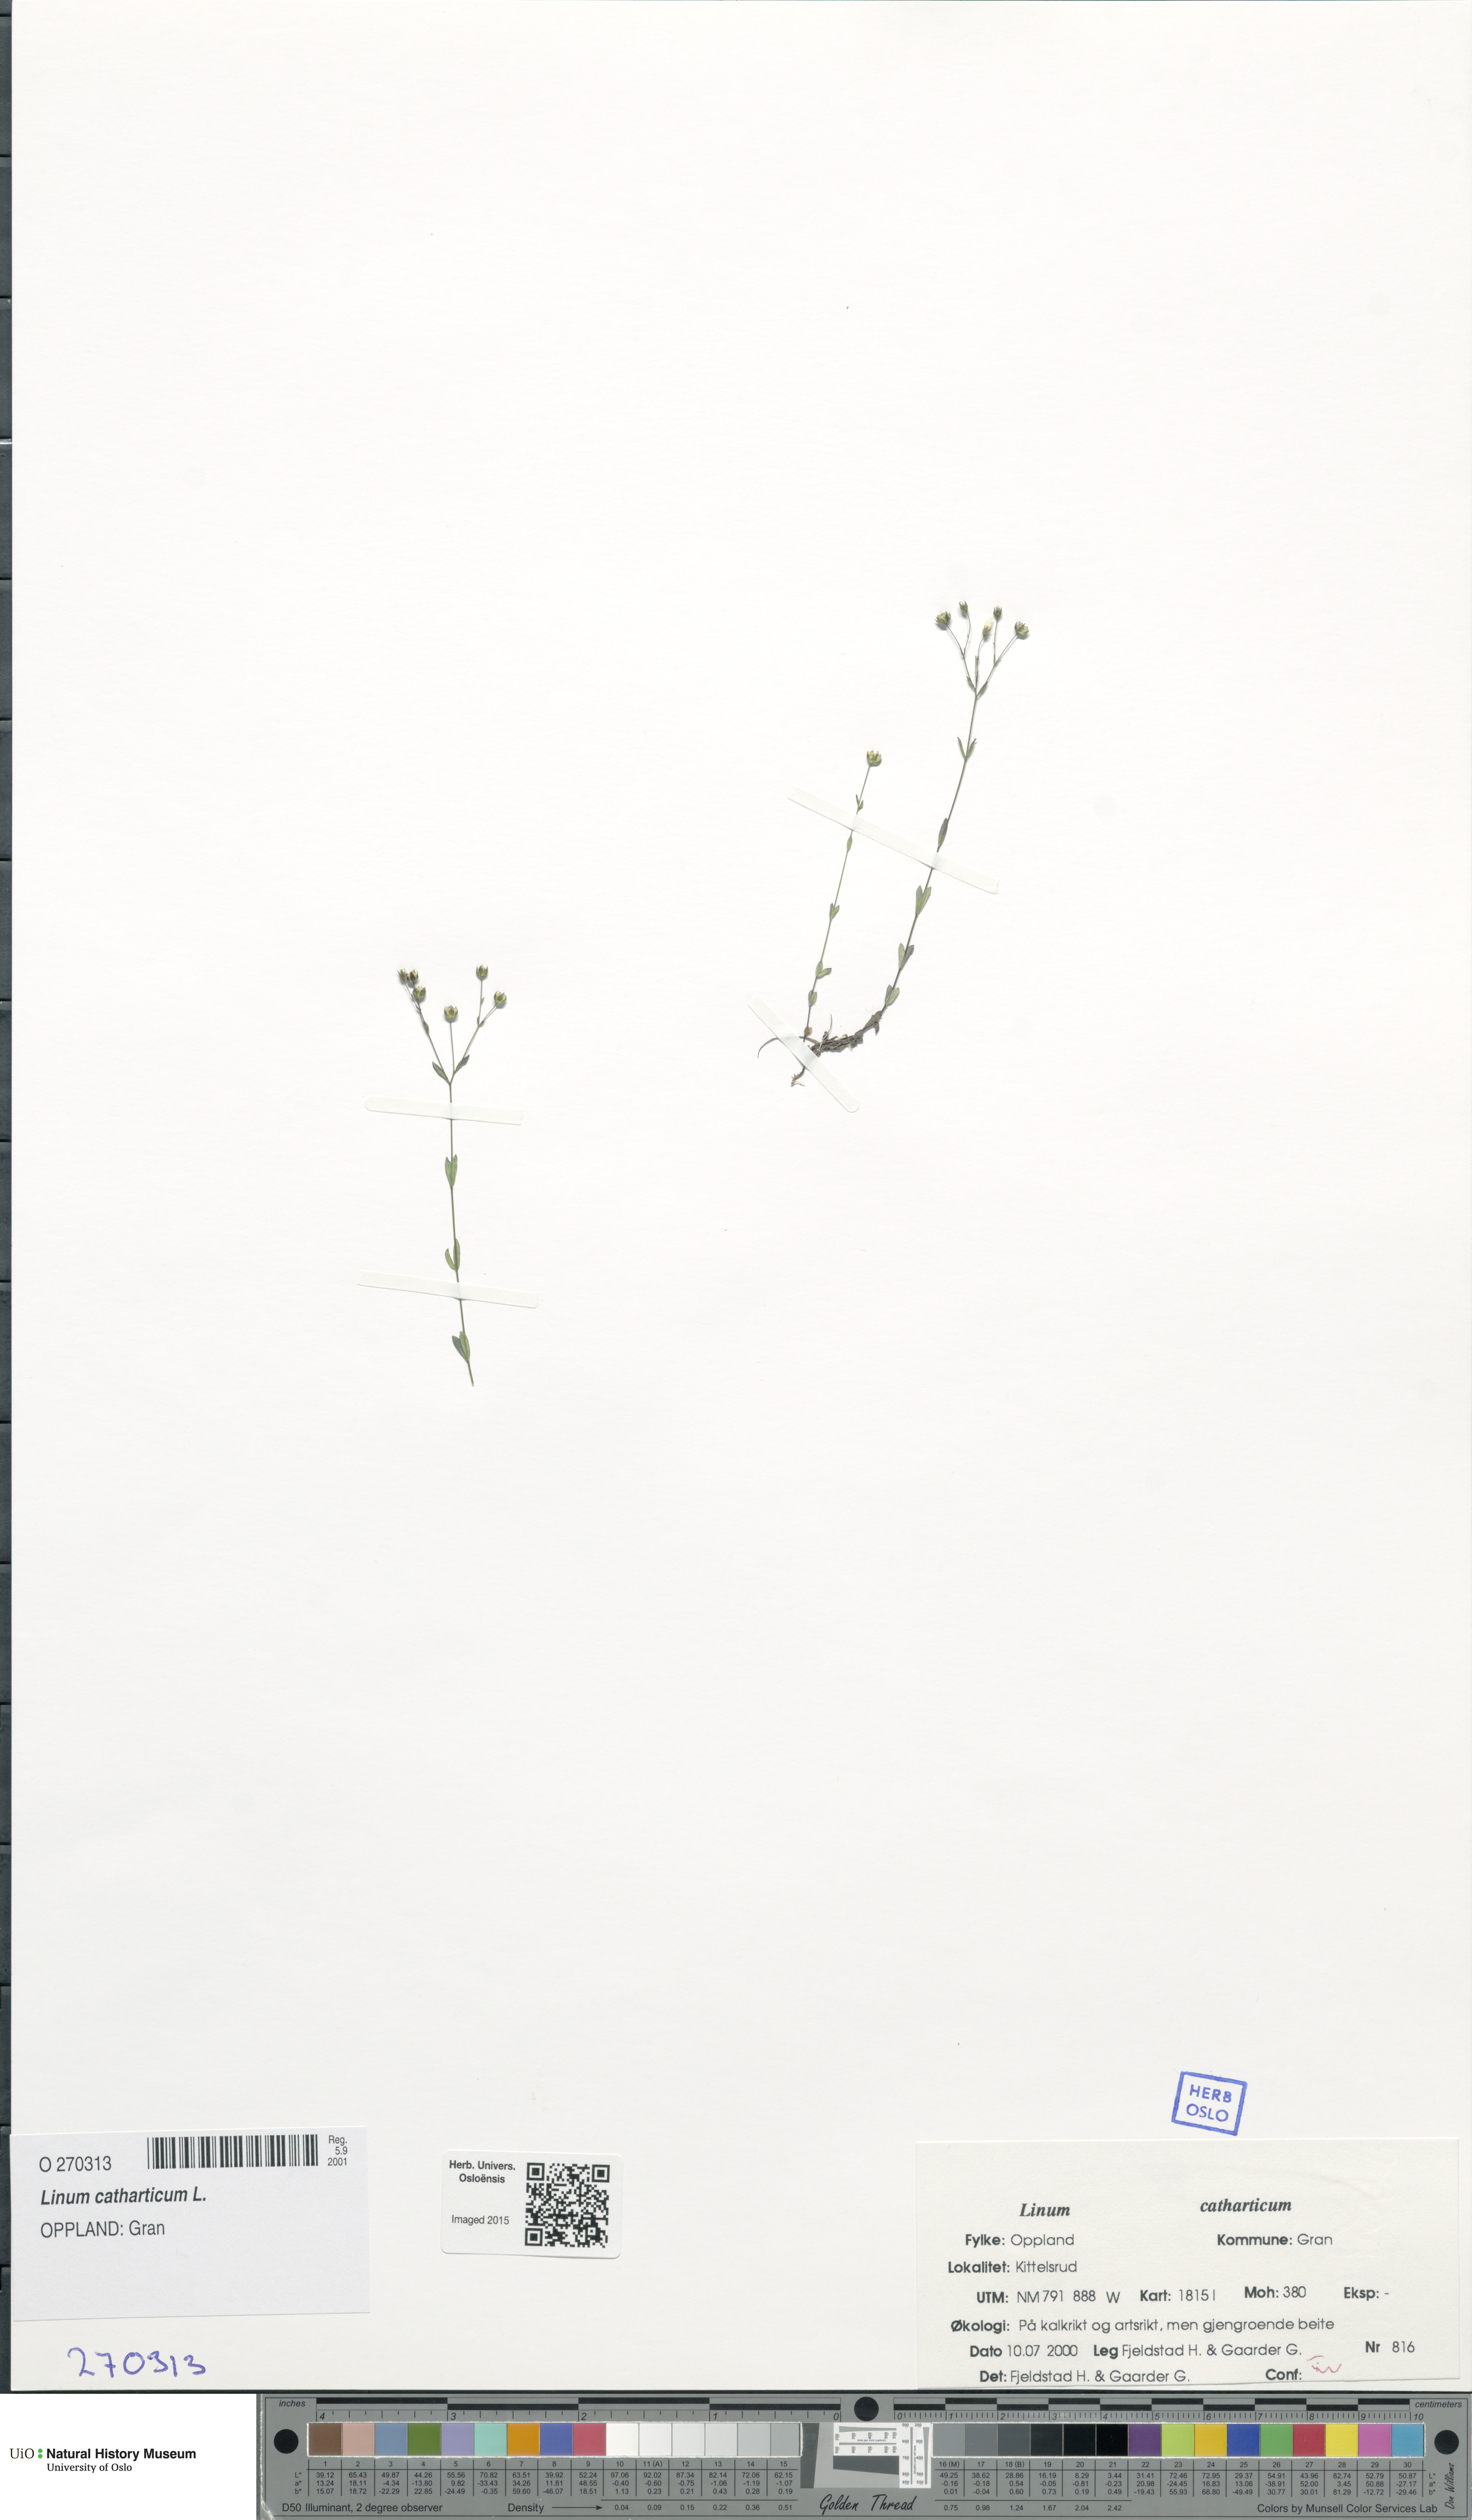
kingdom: Plantae
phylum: Tracheophyta
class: Magnoliopsida
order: Malpighiales
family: Linaceae
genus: Linum
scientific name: Linum catharticum
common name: Fairy flax
